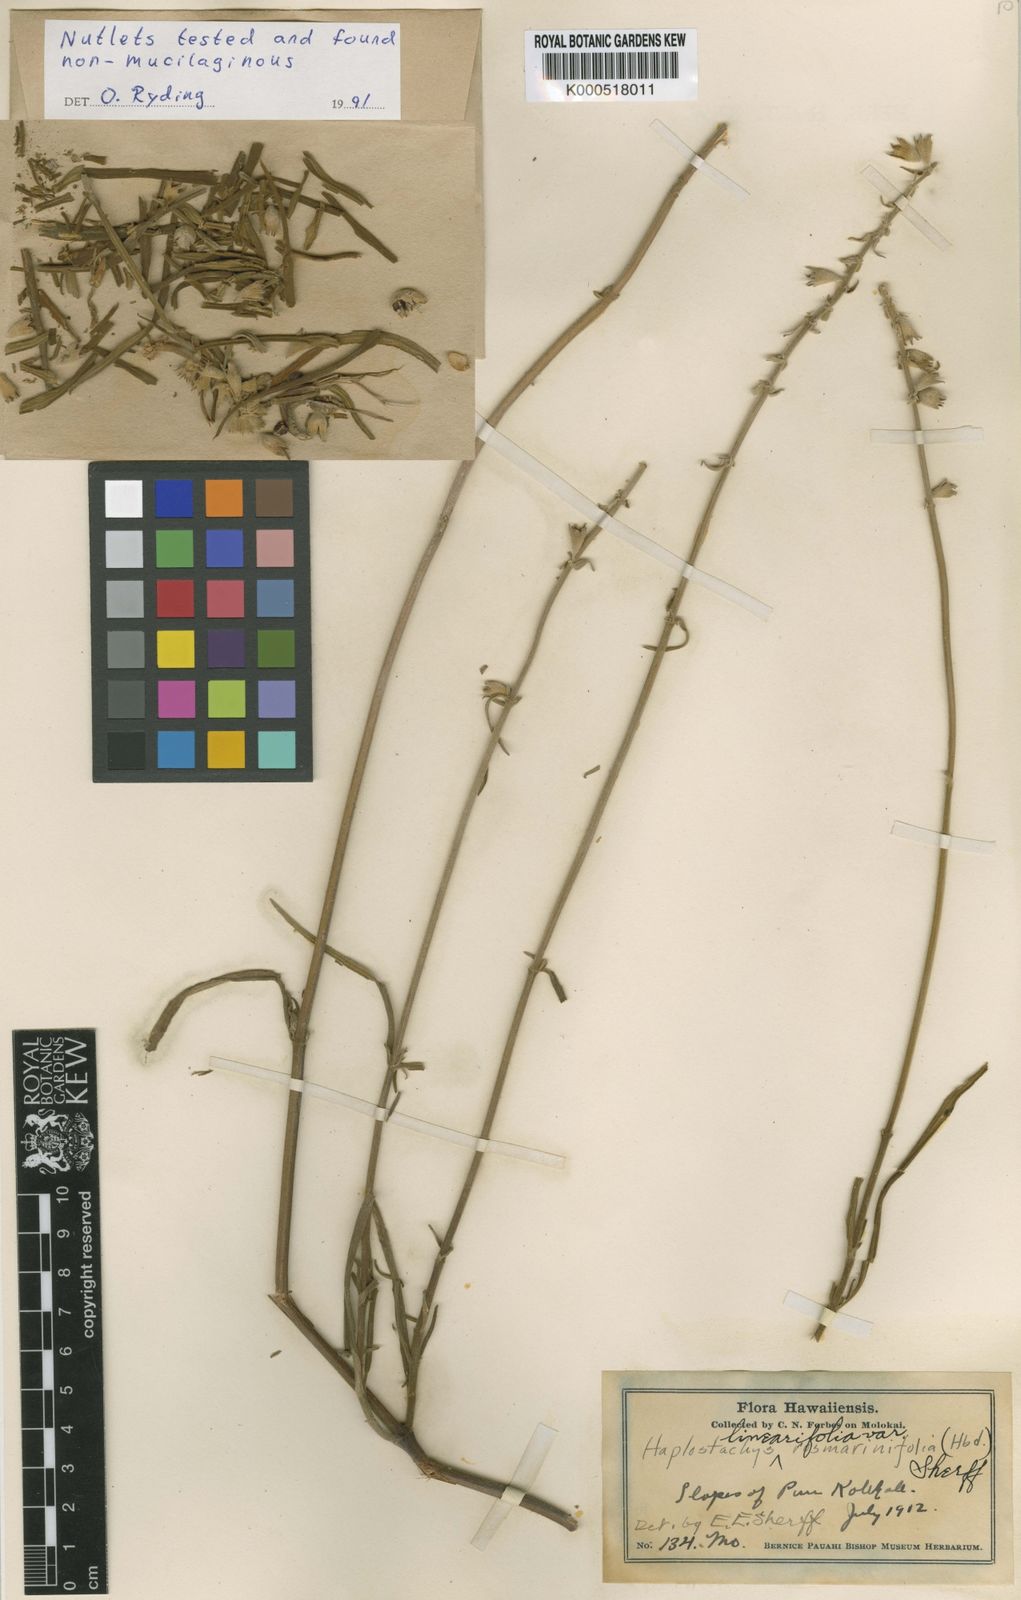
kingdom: Plantae
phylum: Tracheophyta
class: Magnoliopsida
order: Lamiales
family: Lamiaceae
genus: Haplostachys
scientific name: Haplostachys linearifolia
